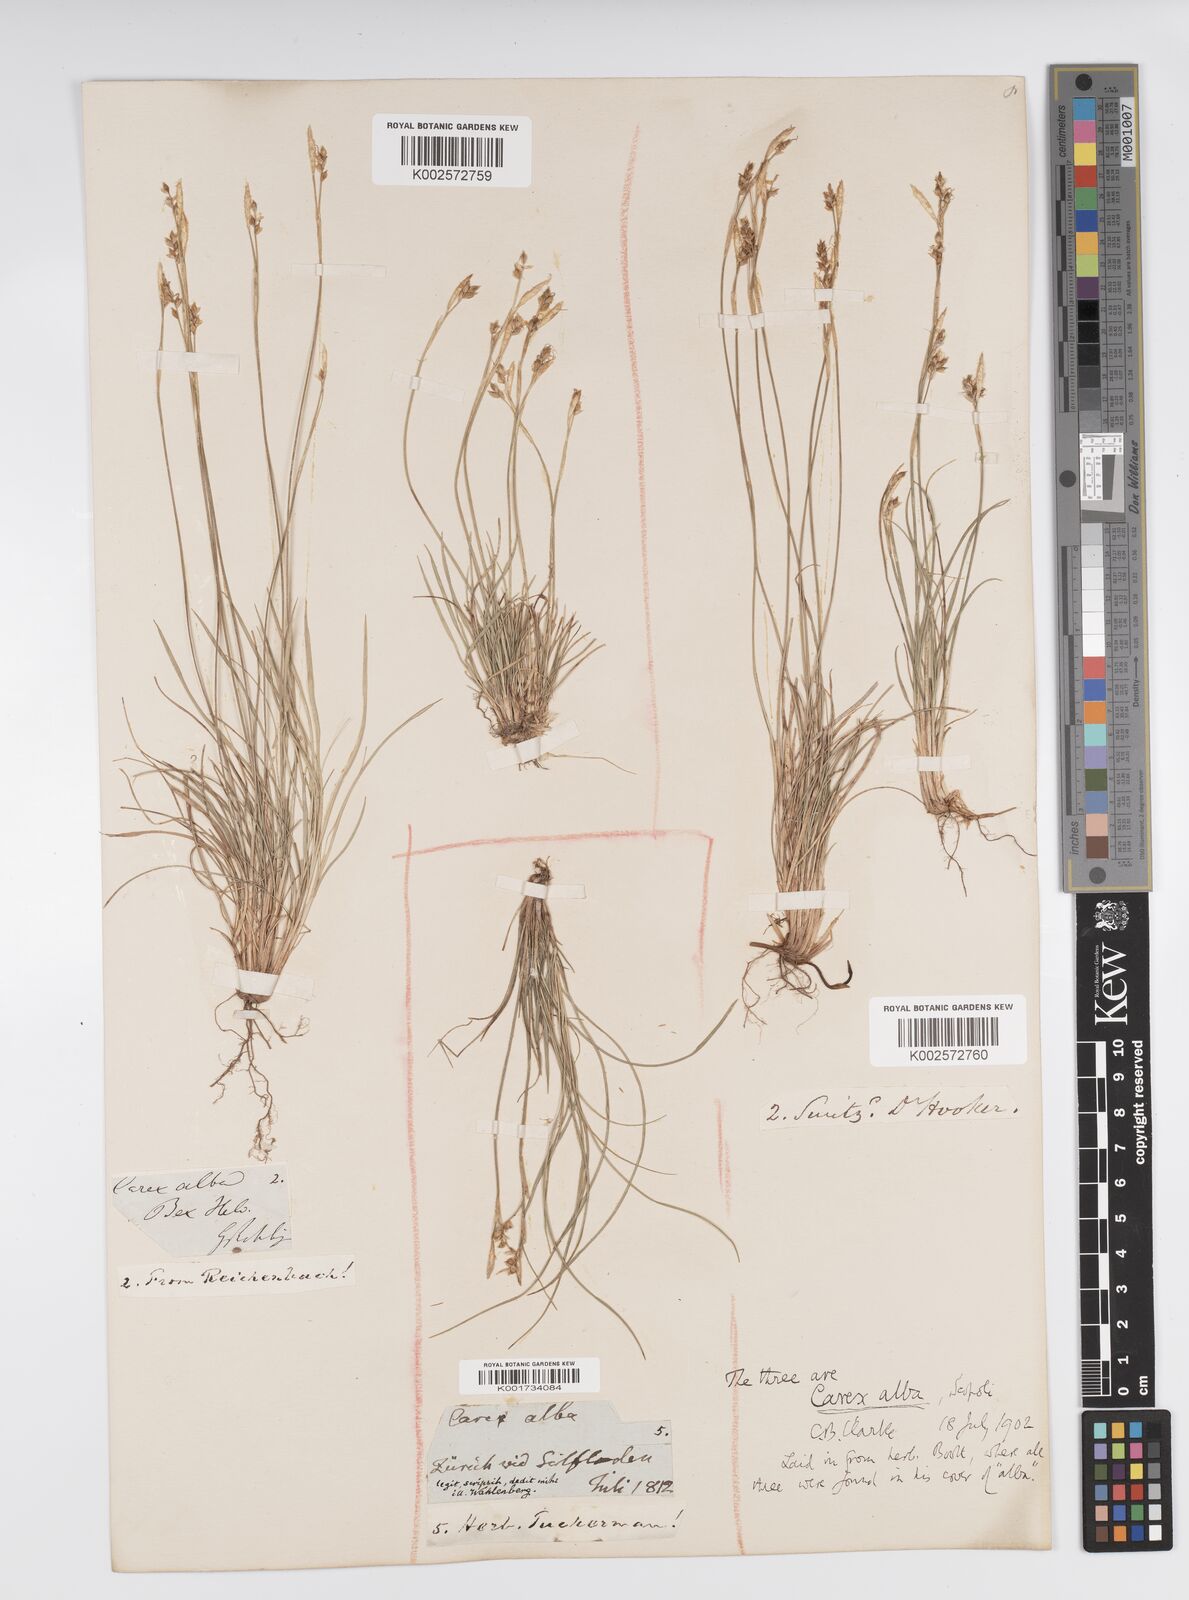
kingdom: Plantae
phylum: Tracheophyta
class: Liliopsida
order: Poales
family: Cyperaceae
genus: Carex
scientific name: Carex alba
